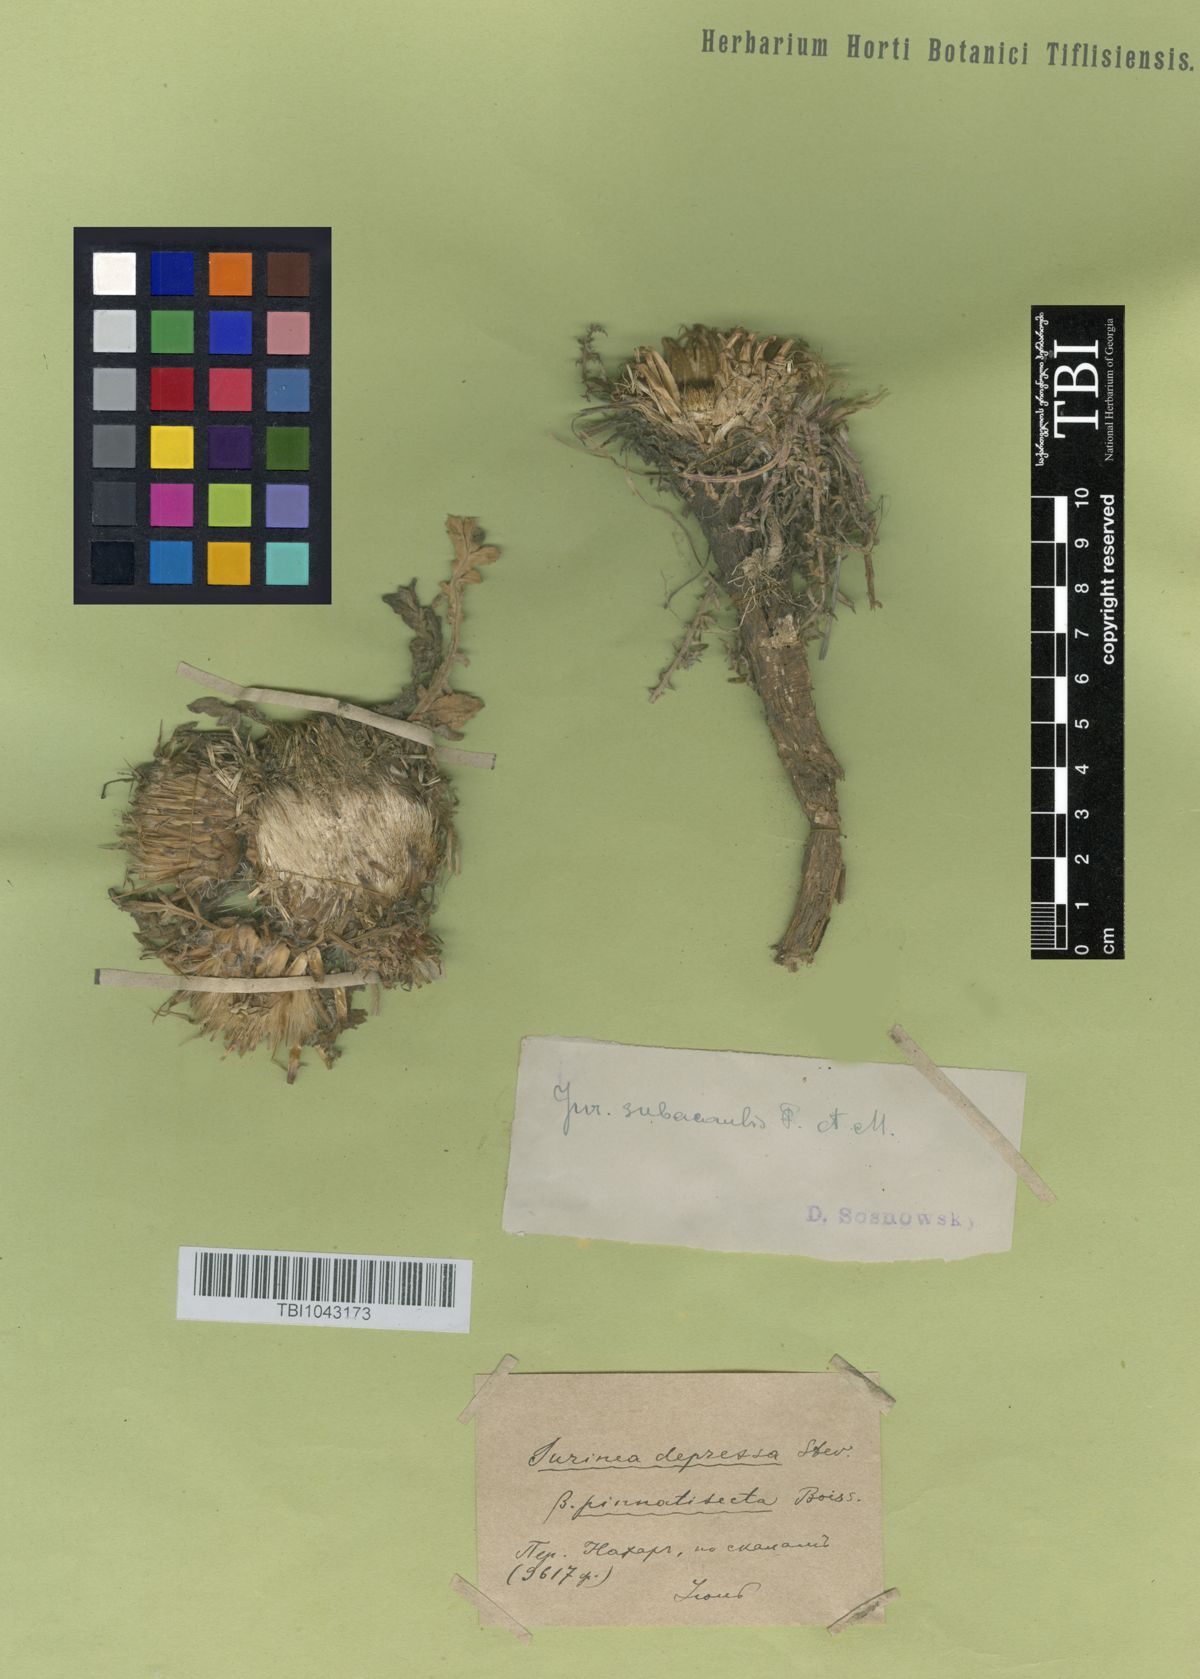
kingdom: Plantae
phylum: Tracheophyta
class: Magnoliopsida
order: Asterales
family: Asteraceae
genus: Jurinea
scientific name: Jurinea moschus
